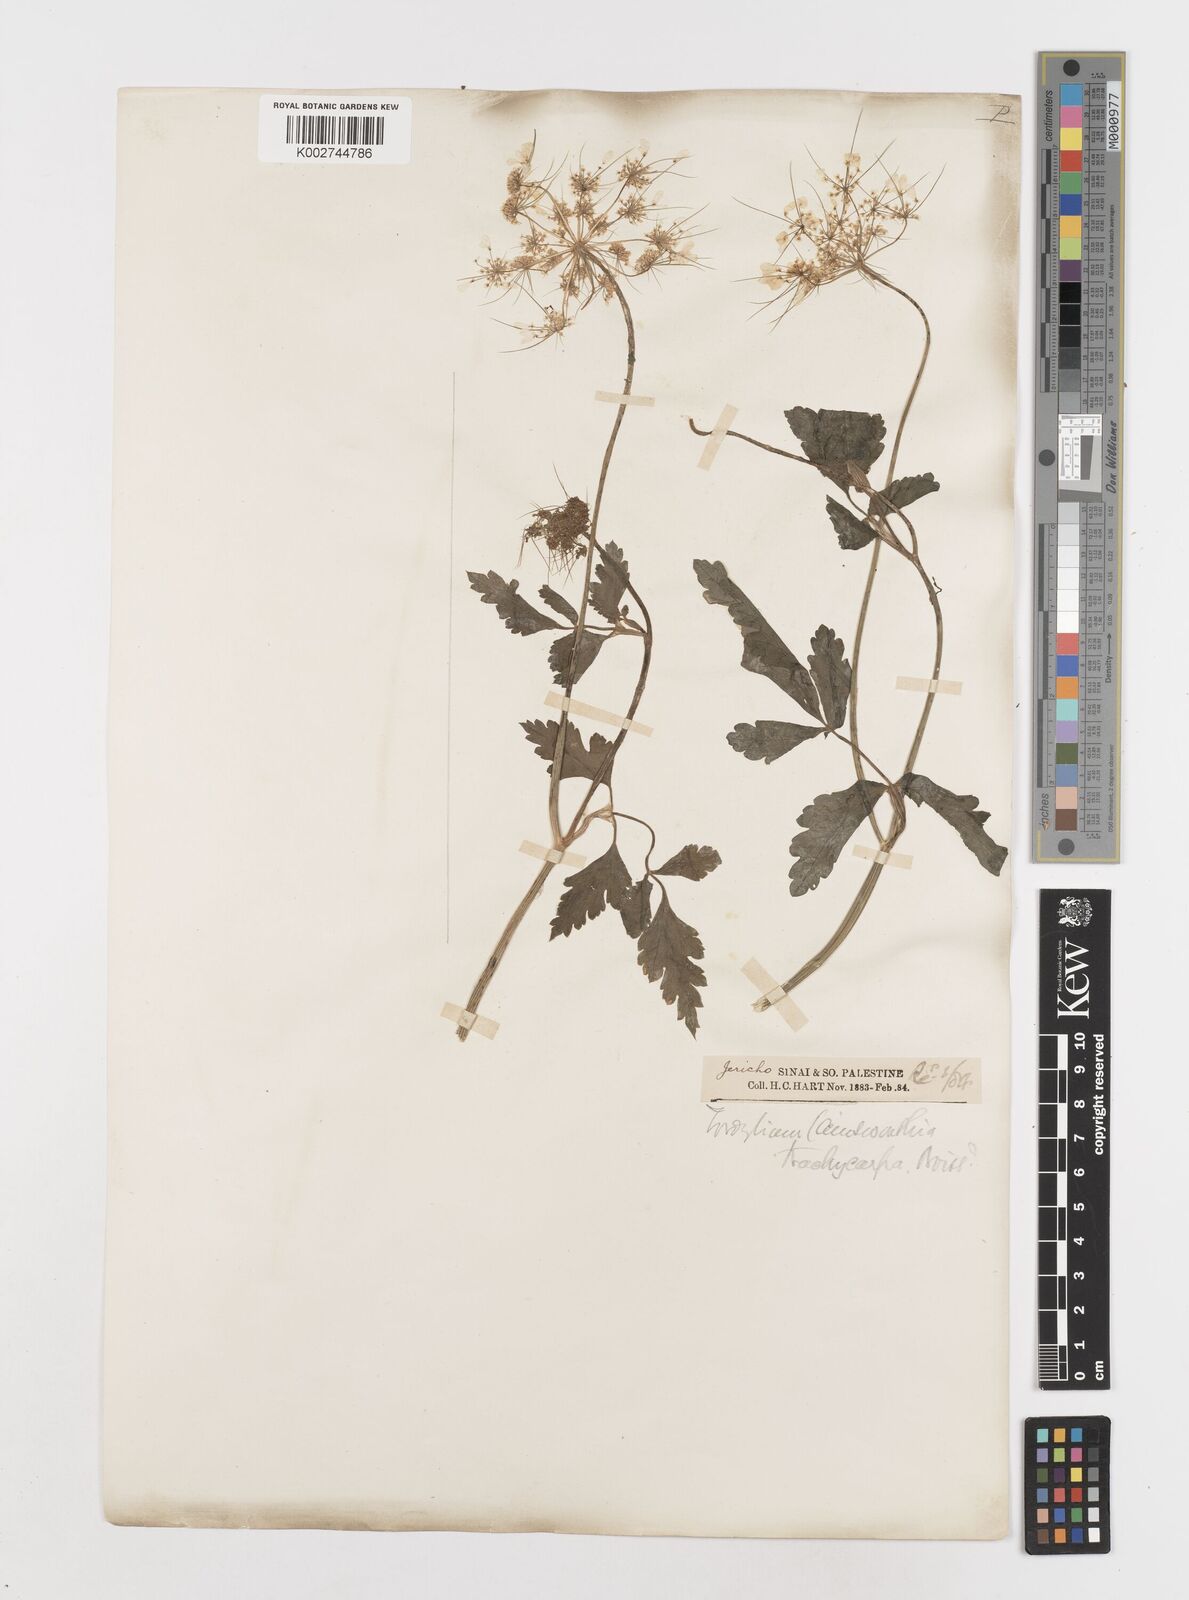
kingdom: Plantae
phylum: Tracheophyta
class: Magnoliopsida
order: Apiales
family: Apiaceae
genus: Ainsworthia
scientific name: Ainsworthia trachycarpa
